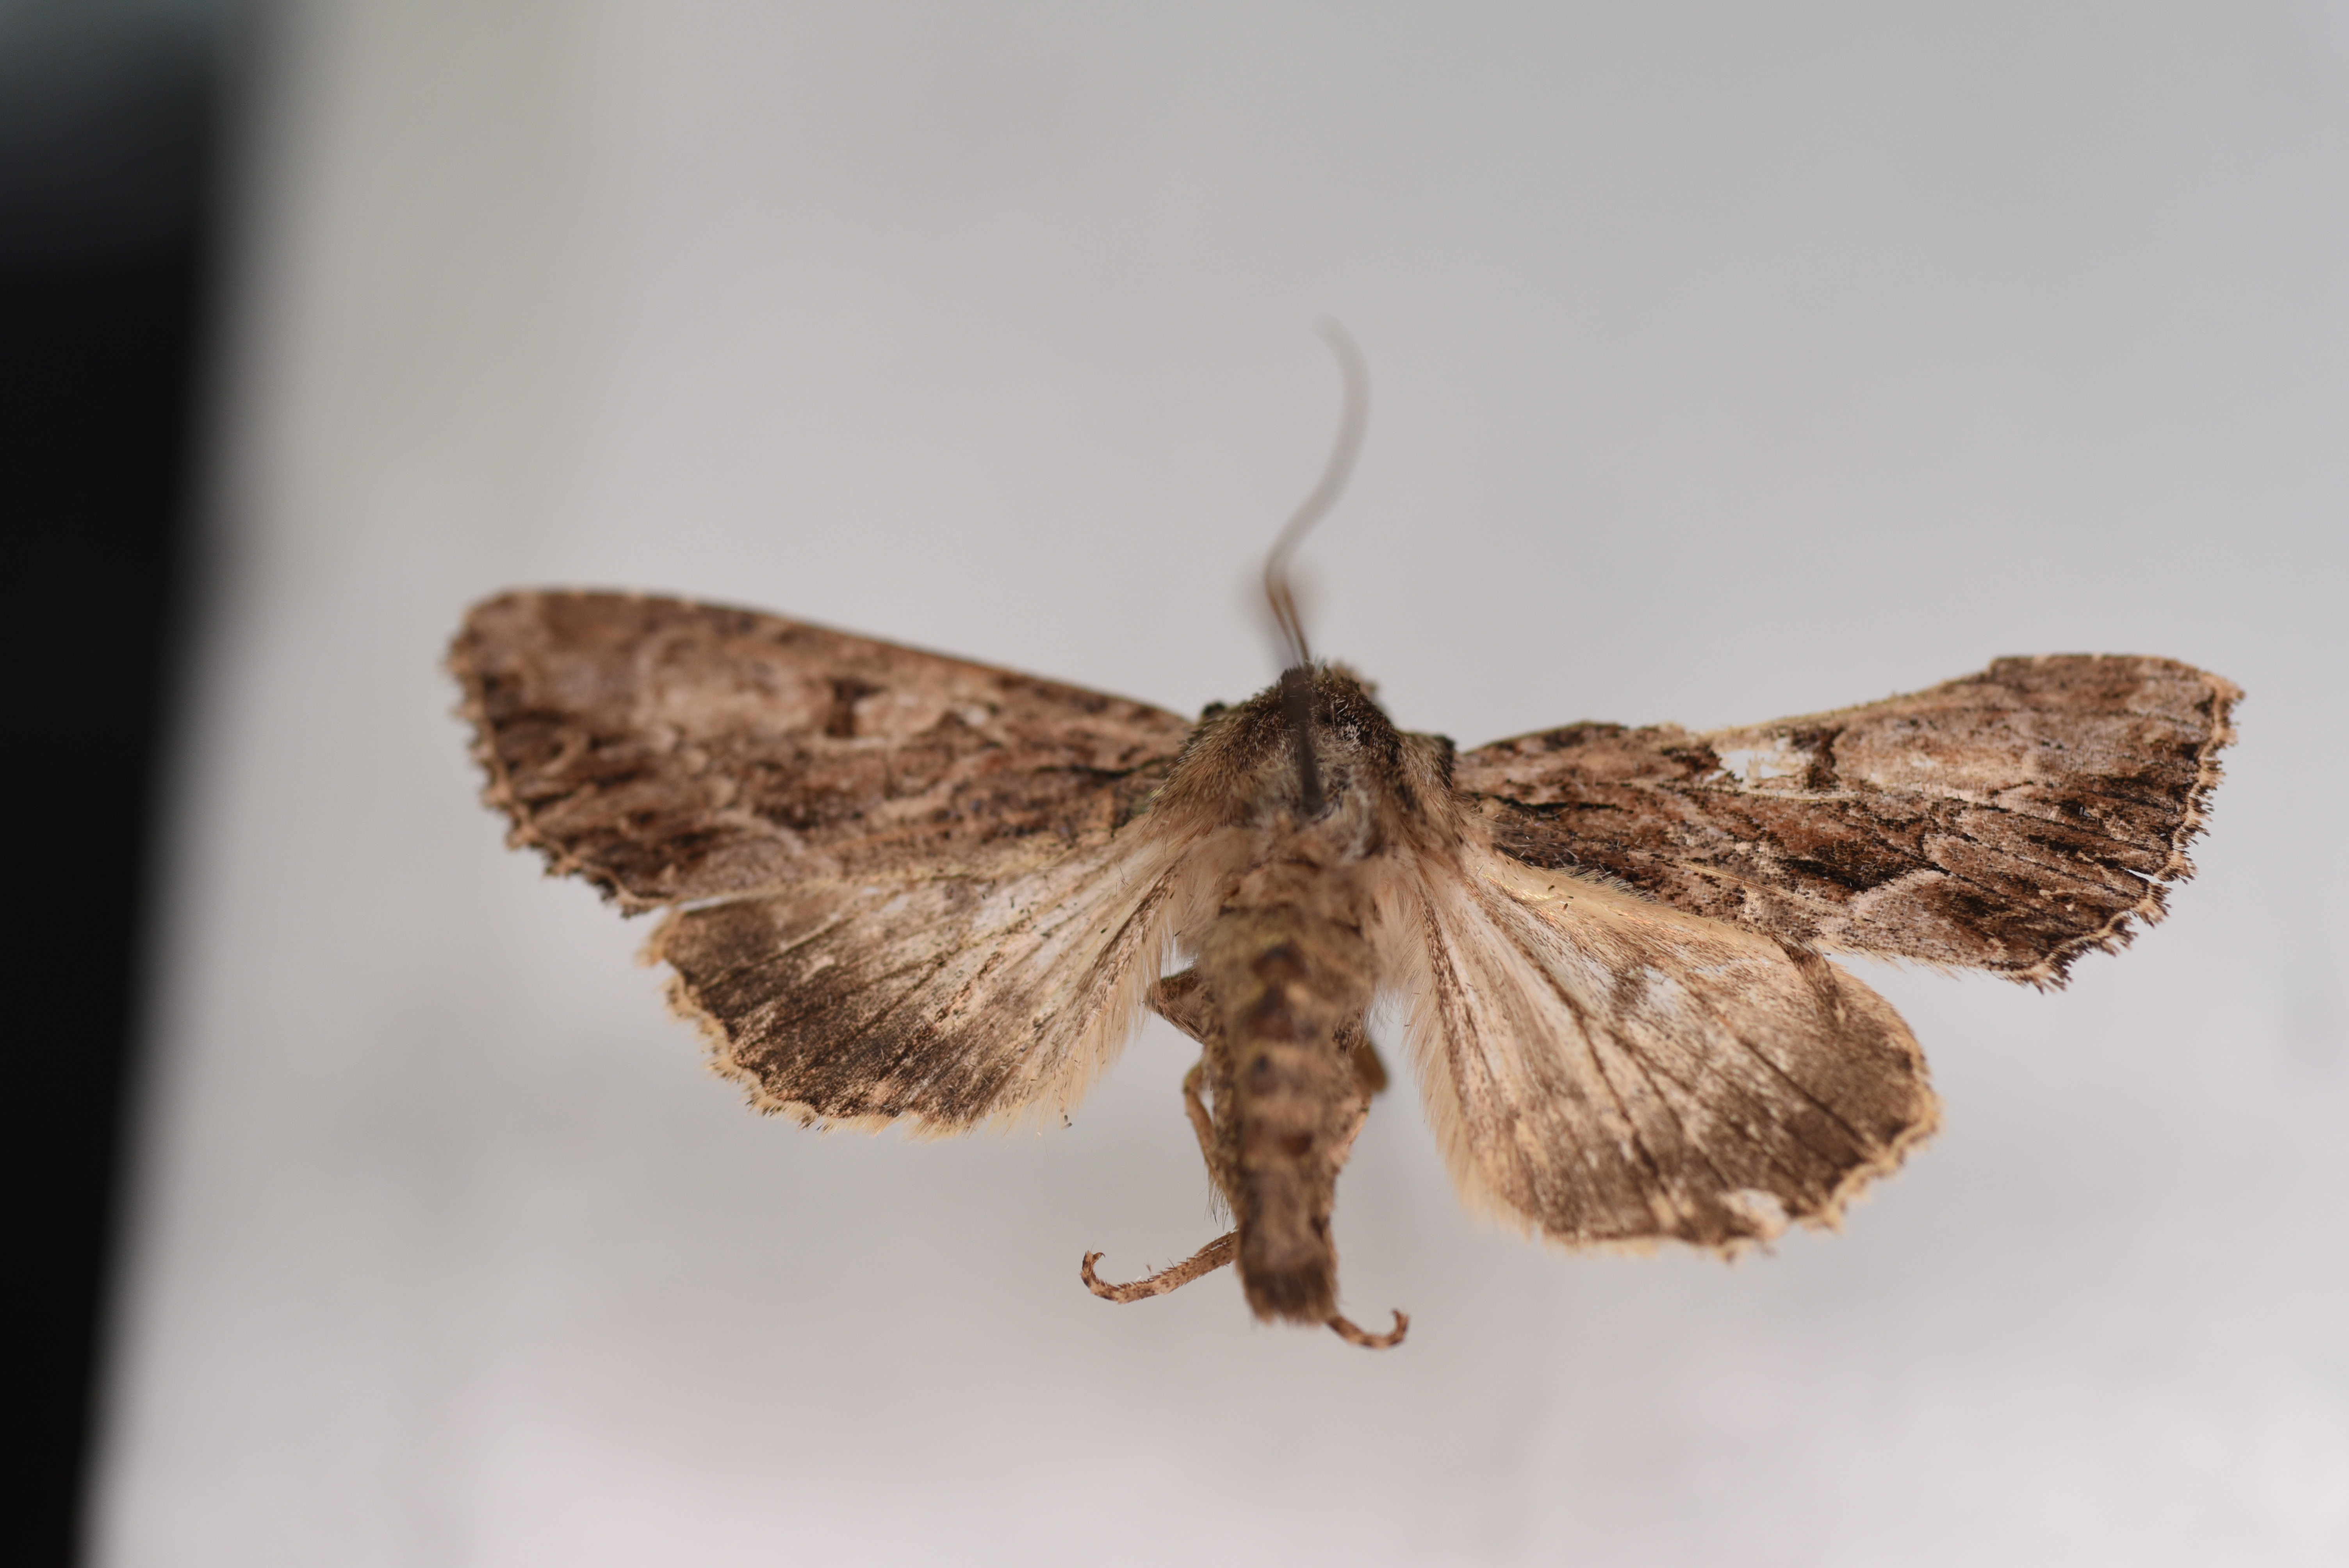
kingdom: Animalia
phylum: Arthropoda
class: Insecta
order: Lepidoptera
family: Noctuidae
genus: Apamea
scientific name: Apamea monoglypha
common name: Dark arches
